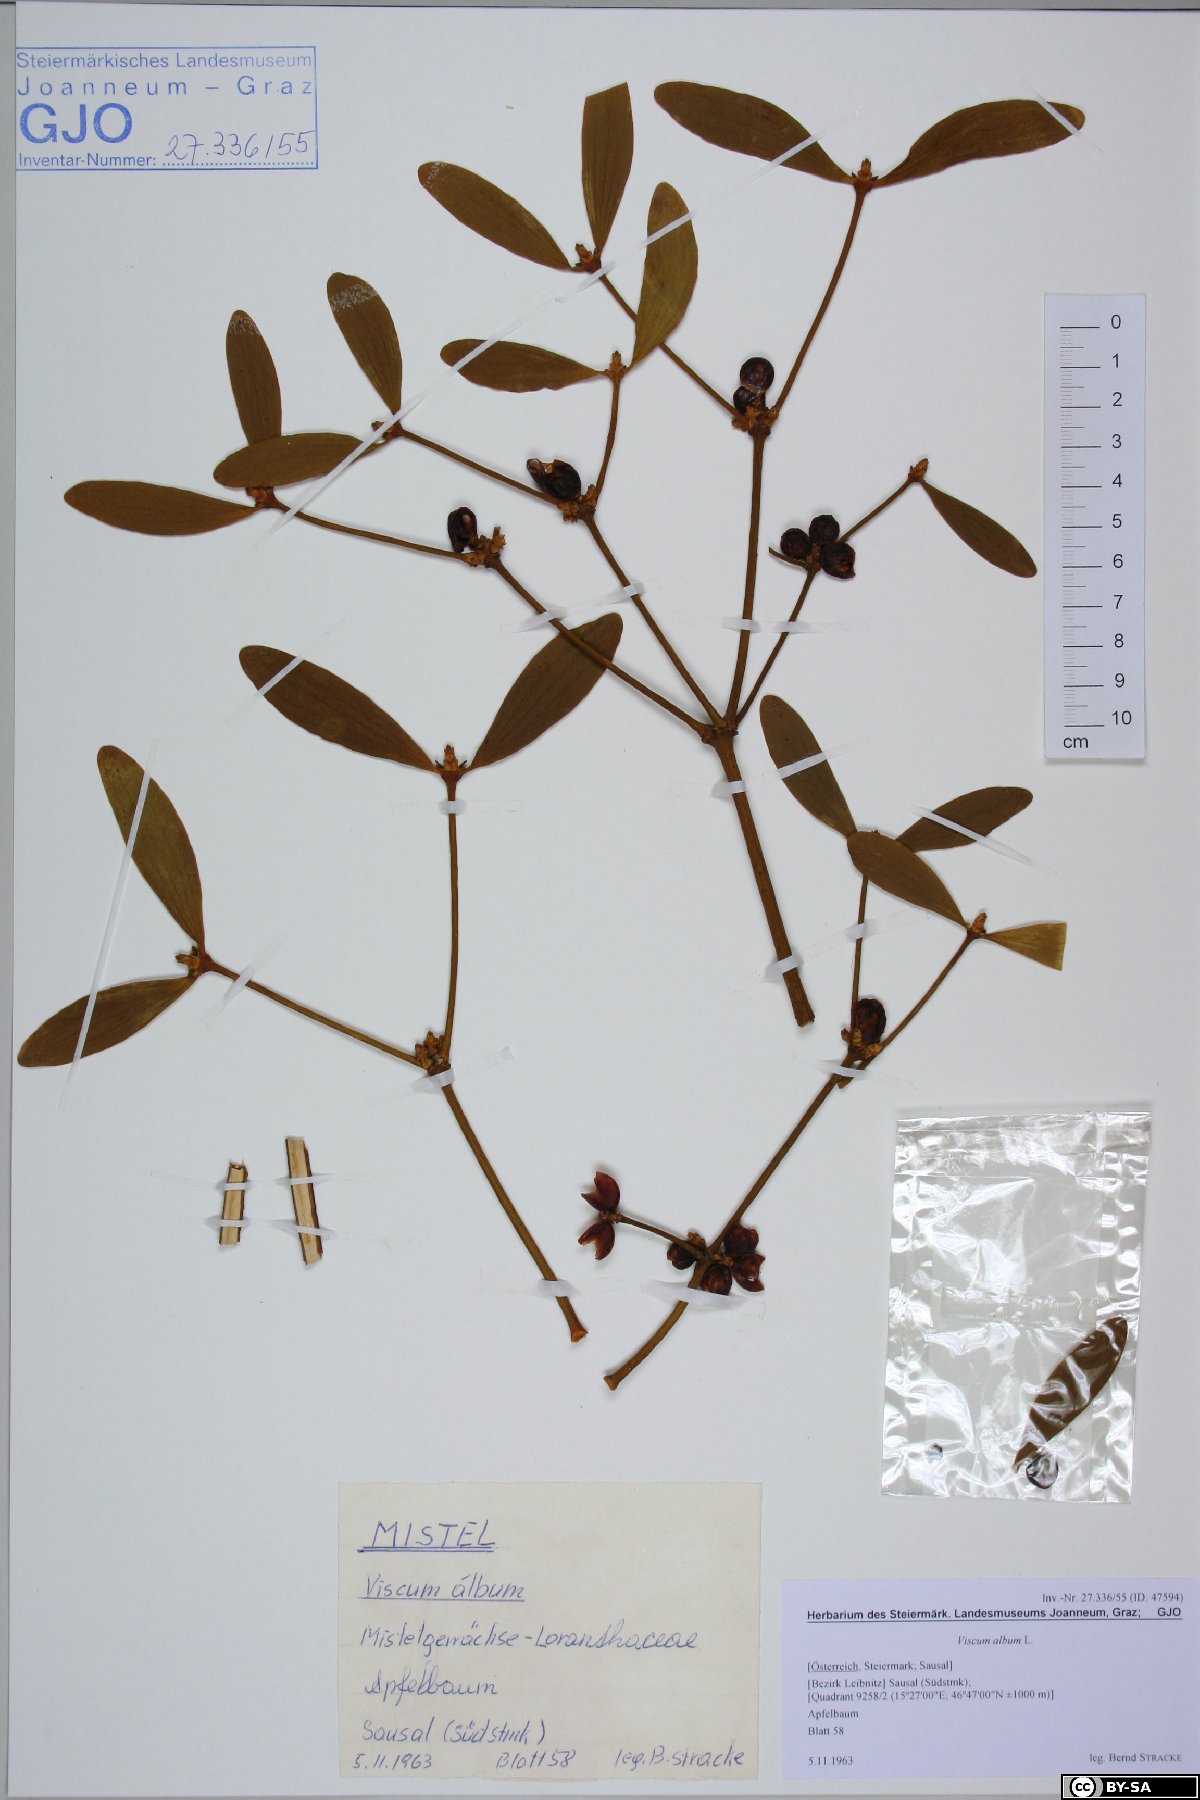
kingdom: Plantae
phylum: Tracheophyta
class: Magnoliopsida
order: Santalales
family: Viscaceae
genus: Viscum
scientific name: Viscum album
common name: Mistletoe
